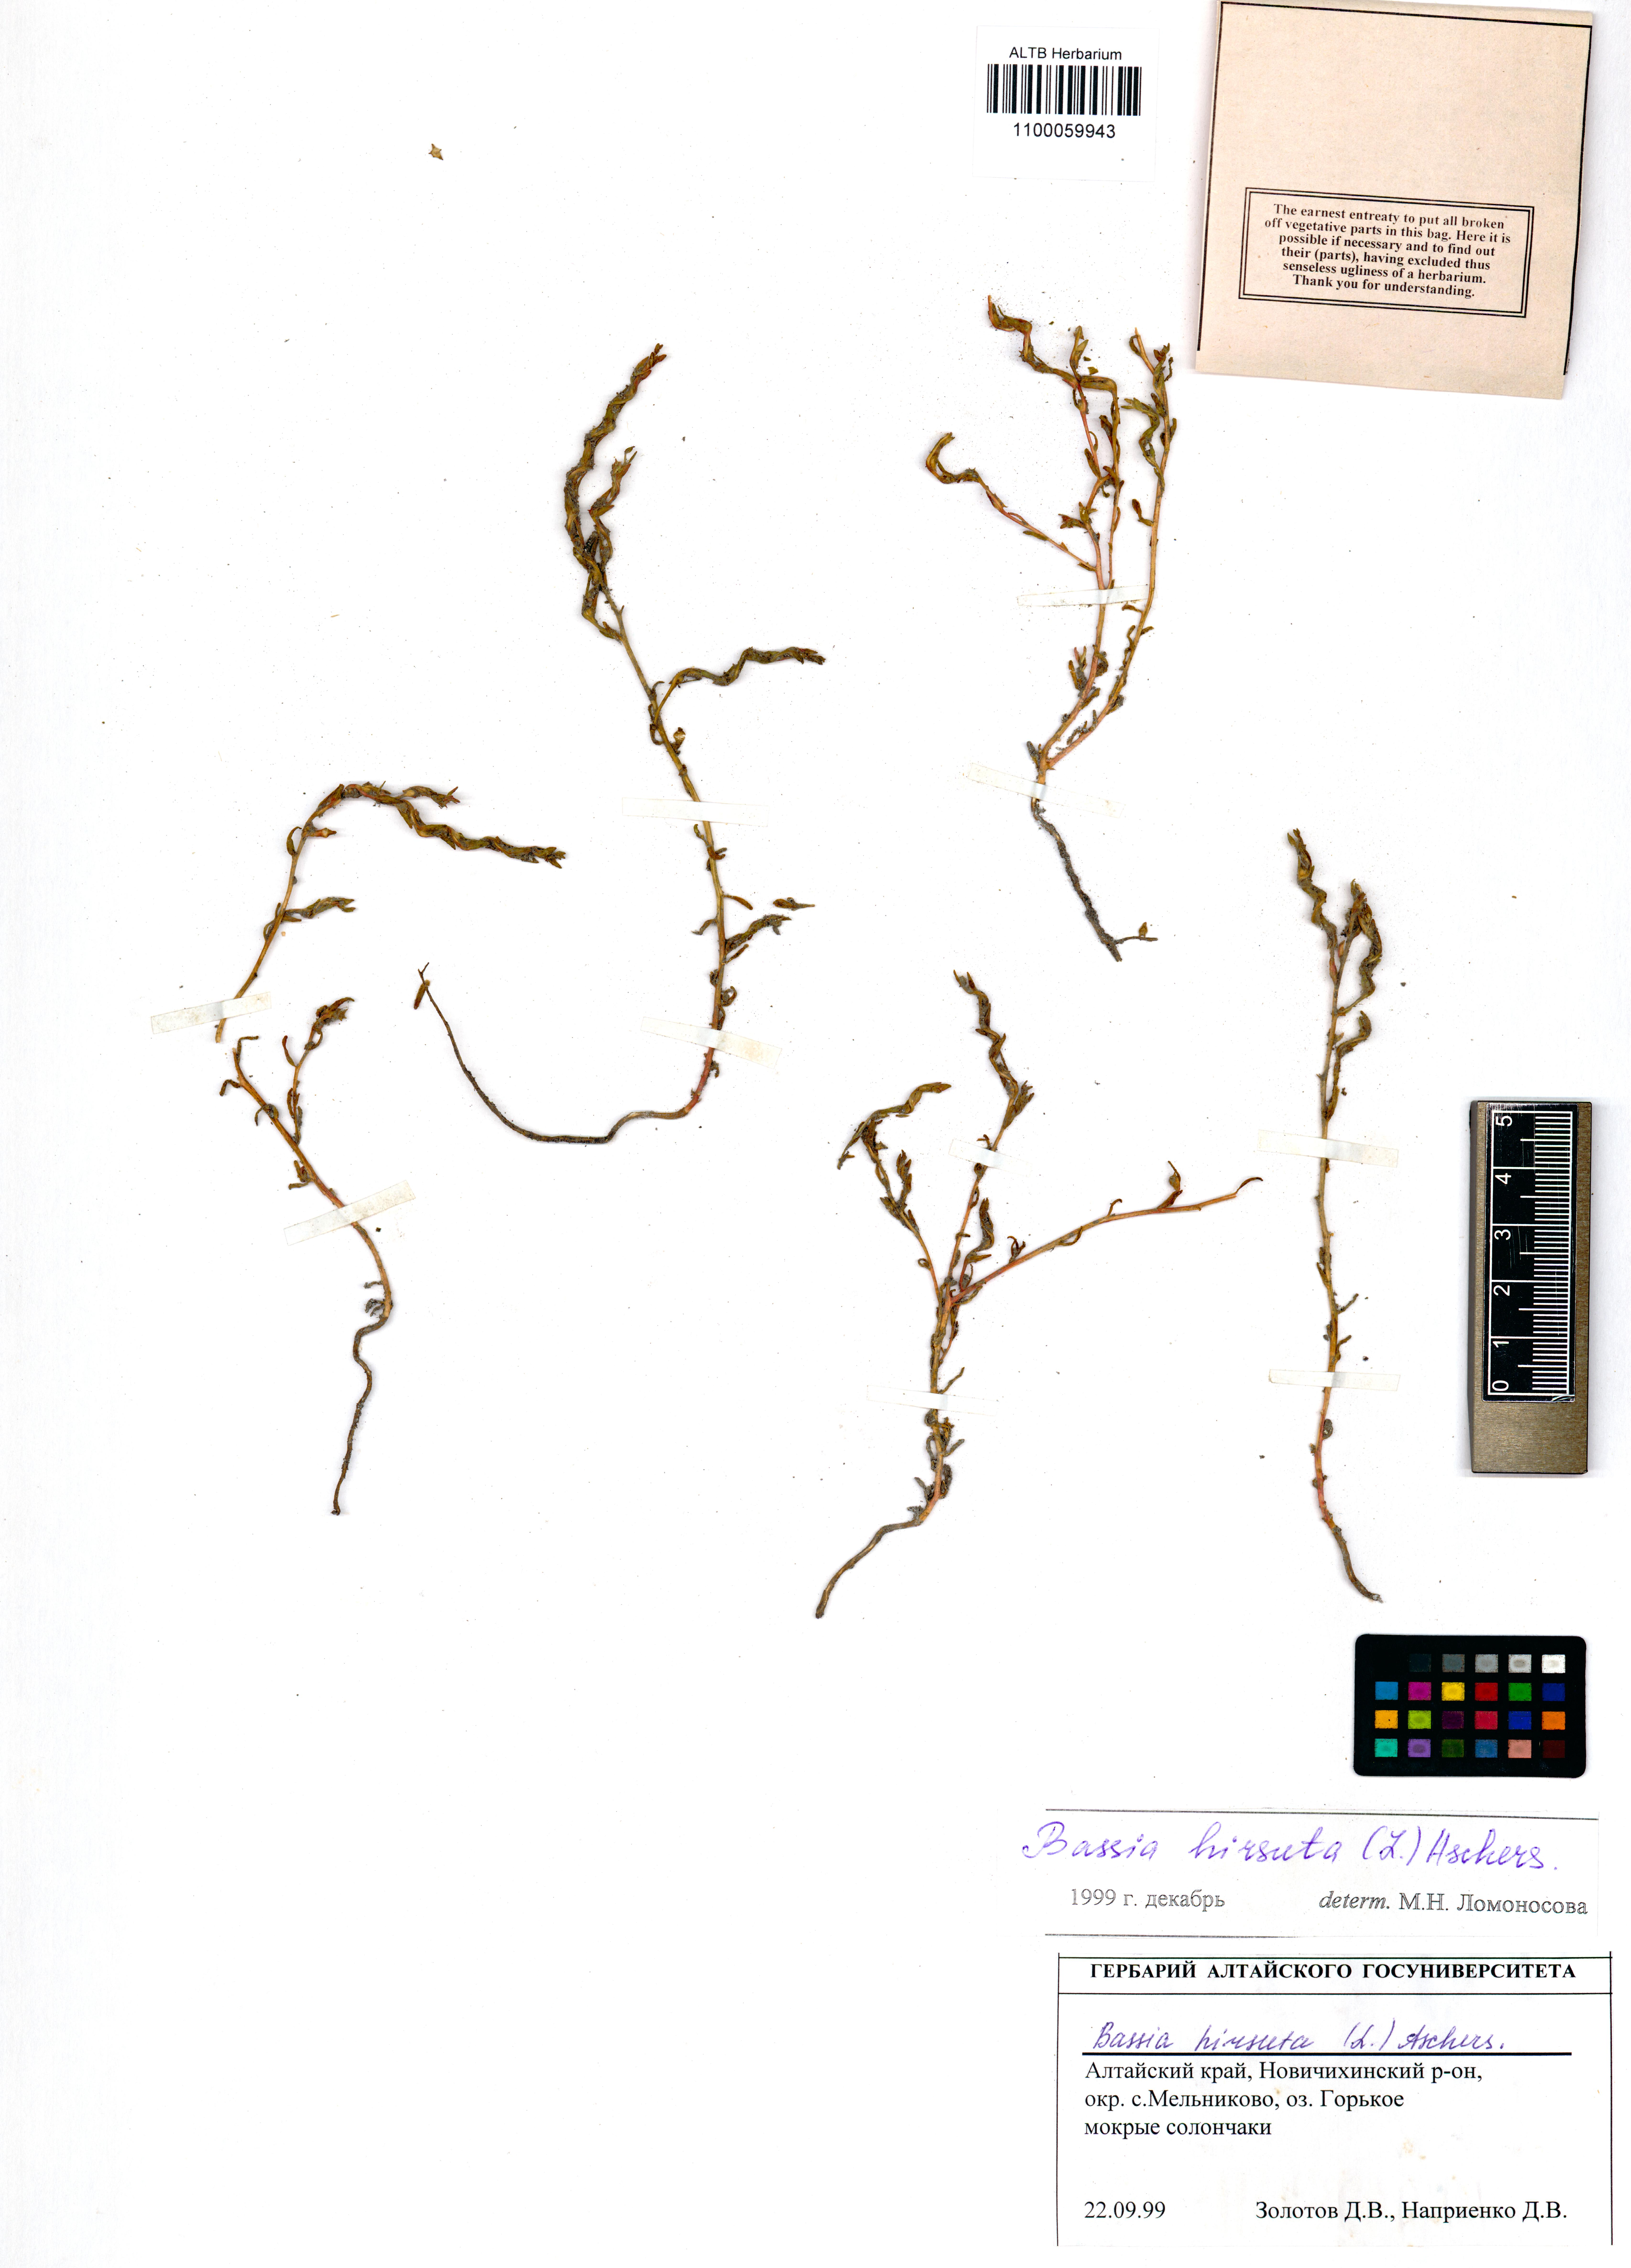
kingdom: Plantae
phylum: Tracheophyta
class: Magnoliopsida
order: Caryophyllales
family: Amaranthaceae
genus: Spirobassia
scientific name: Spirobassia hirsuta
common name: Hairy smotherweed
